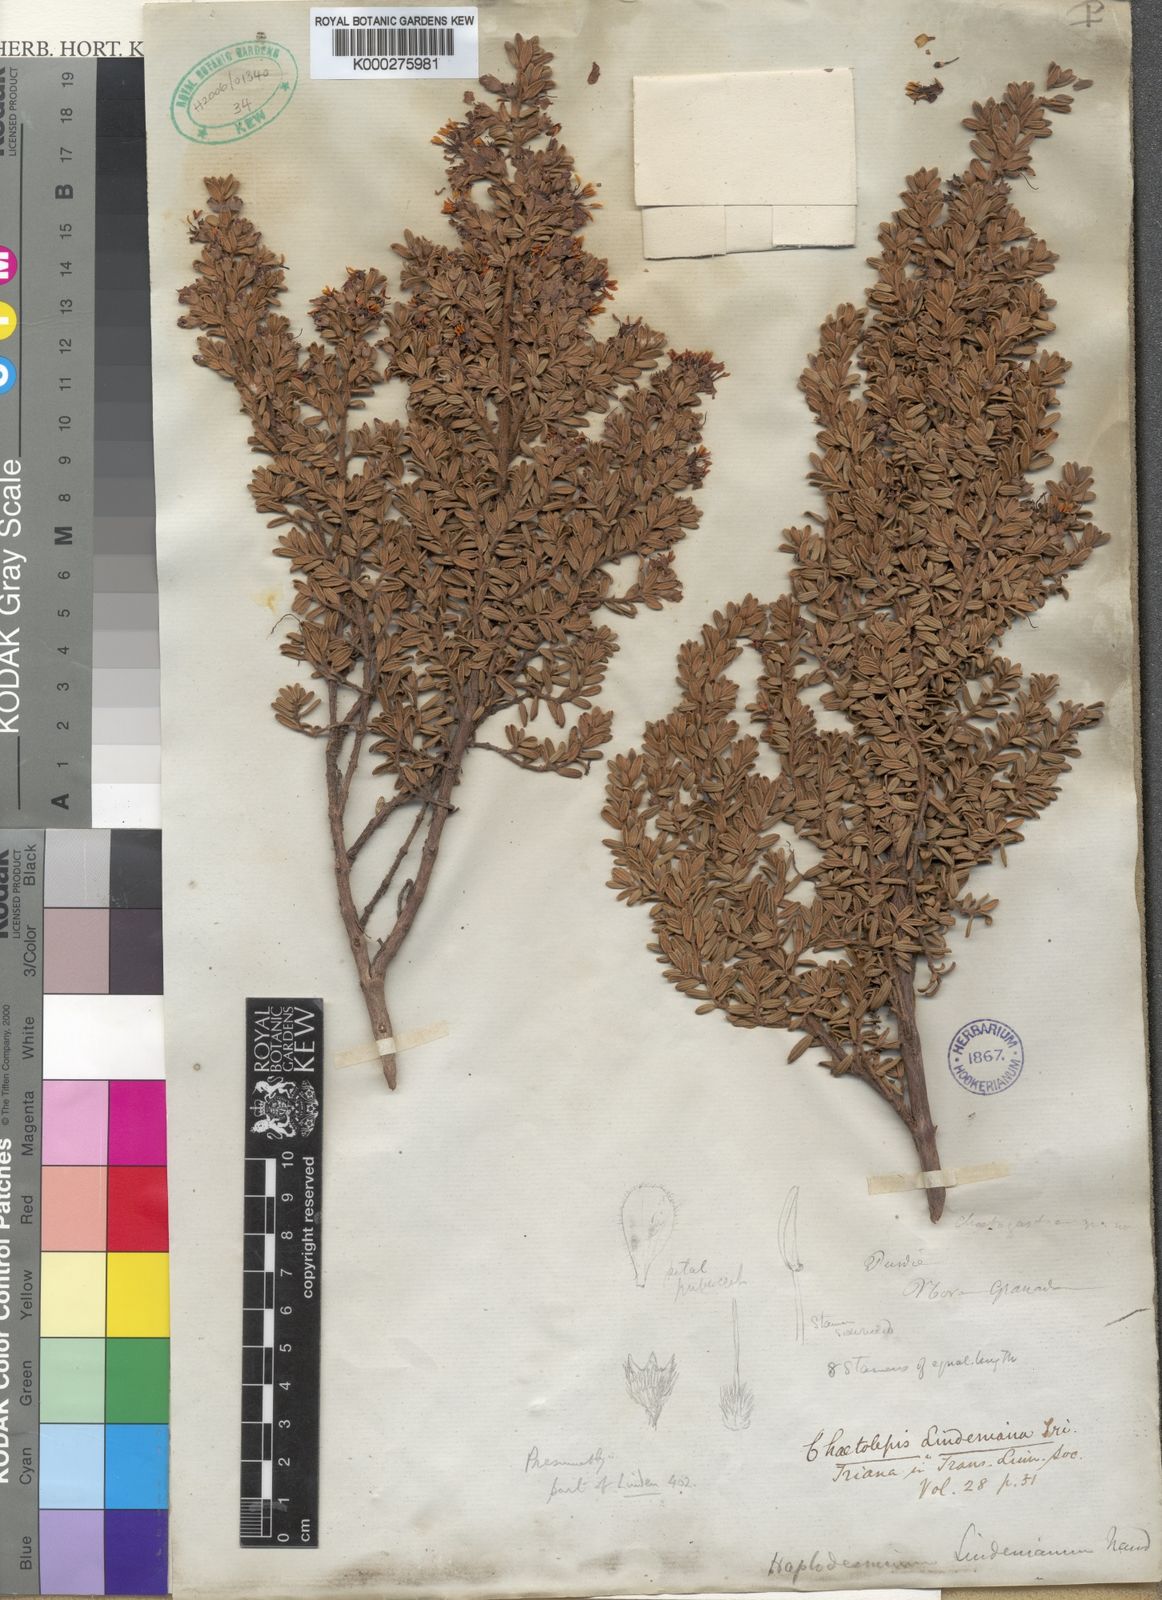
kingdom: Plantae
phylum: Tracheophyta
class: Magnoliopsida
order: Myrtales
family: Melastomataceae
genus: Chaetolepis
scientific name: Chaetolepis lindeniana
